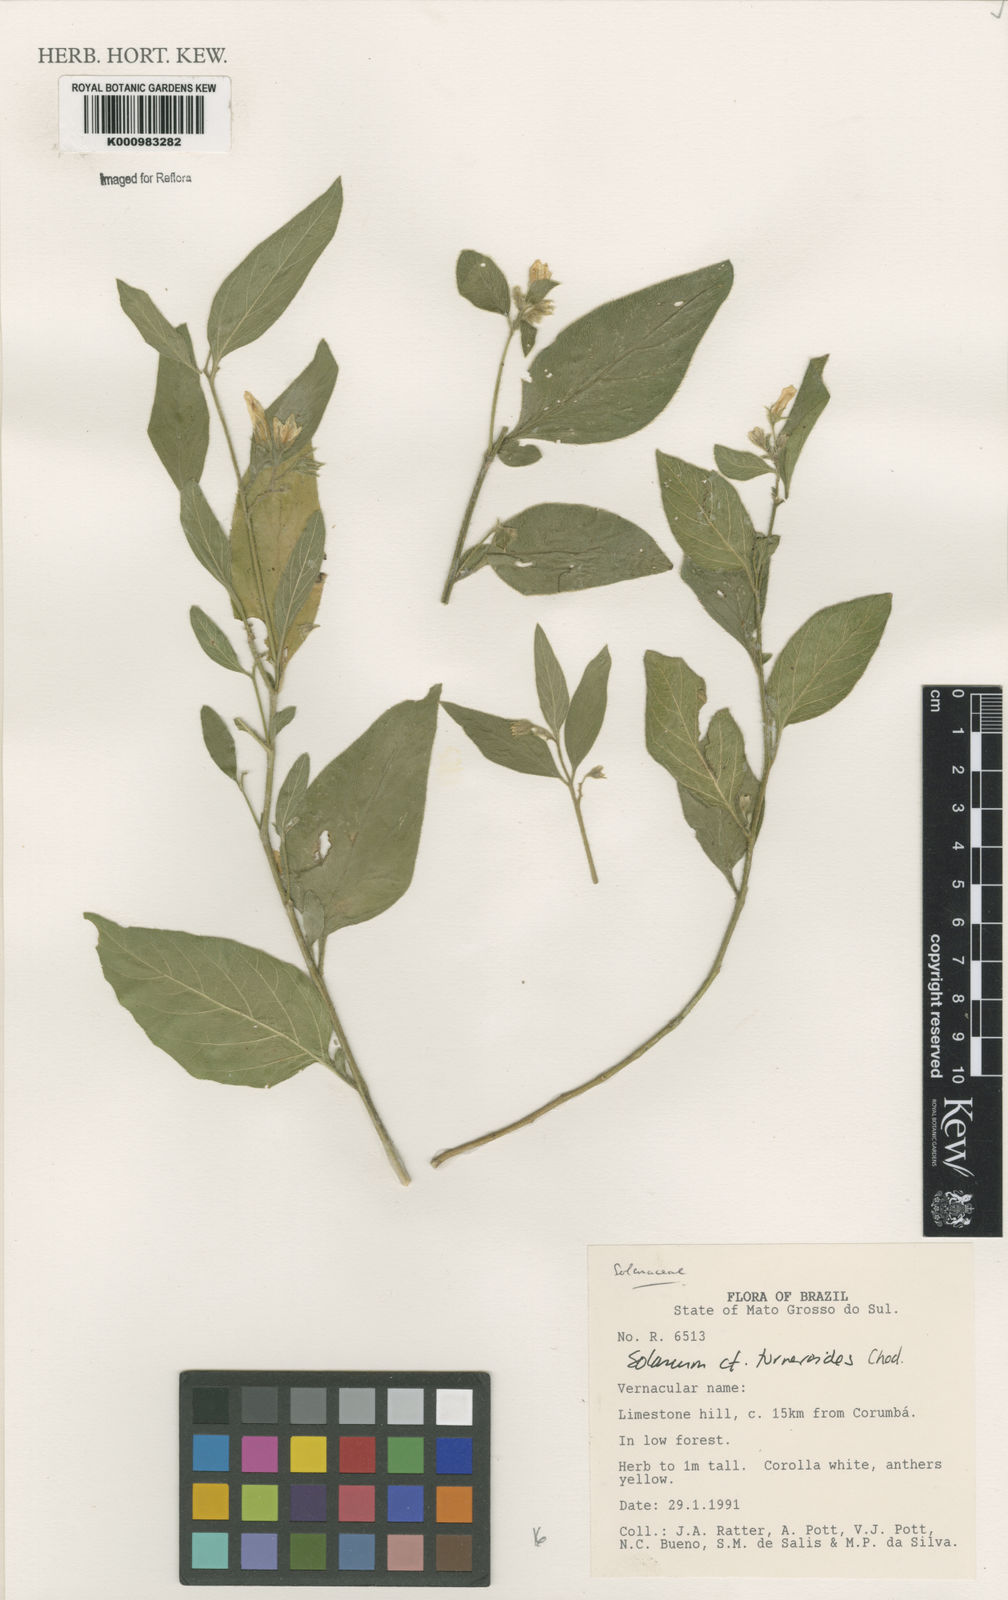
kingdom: Plantae
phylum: Tracheophyta
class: Magnoliopsida
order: Solanales
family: Solanaceae
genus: Solanum
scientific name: Solanum turneroides
